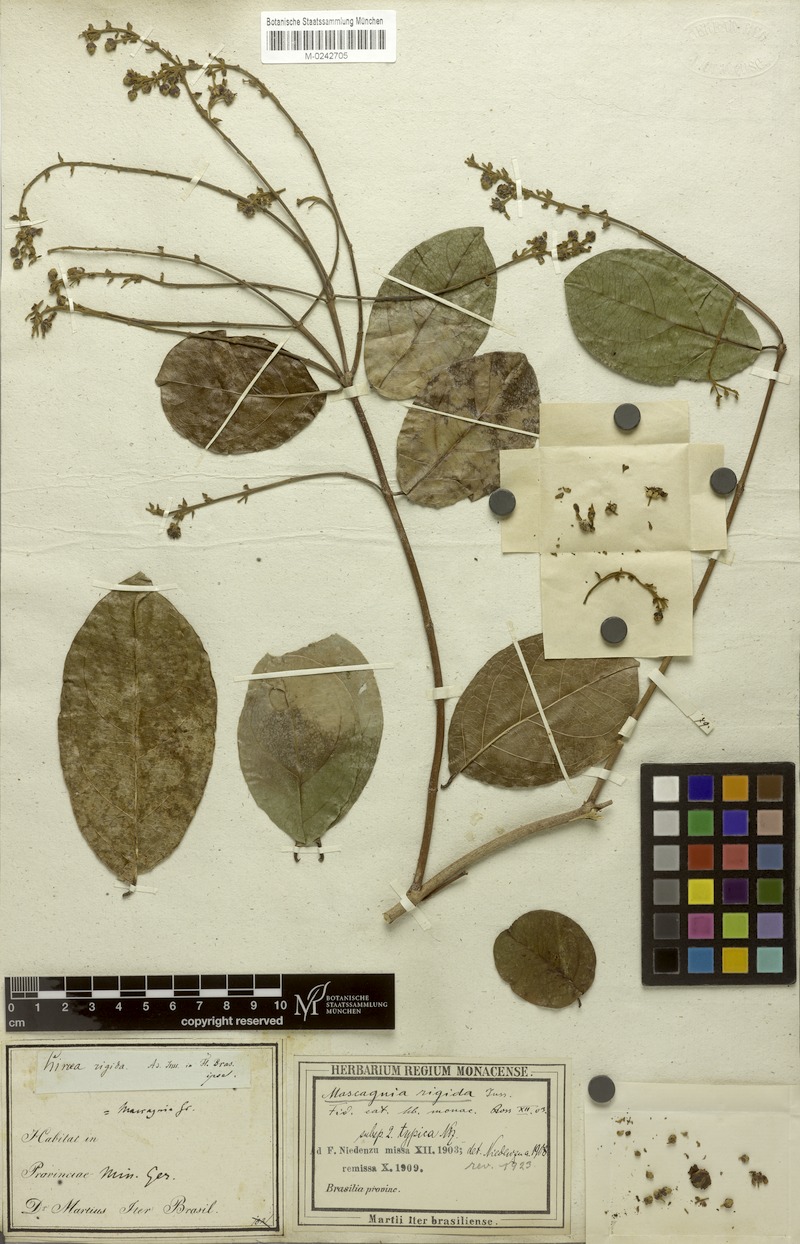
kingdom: Plantae
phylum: Tracheophyta
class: Magnoliopsida
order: Malpighiales
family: Malpighiaceae
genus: Amorimia
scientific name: Amorimia rigida
